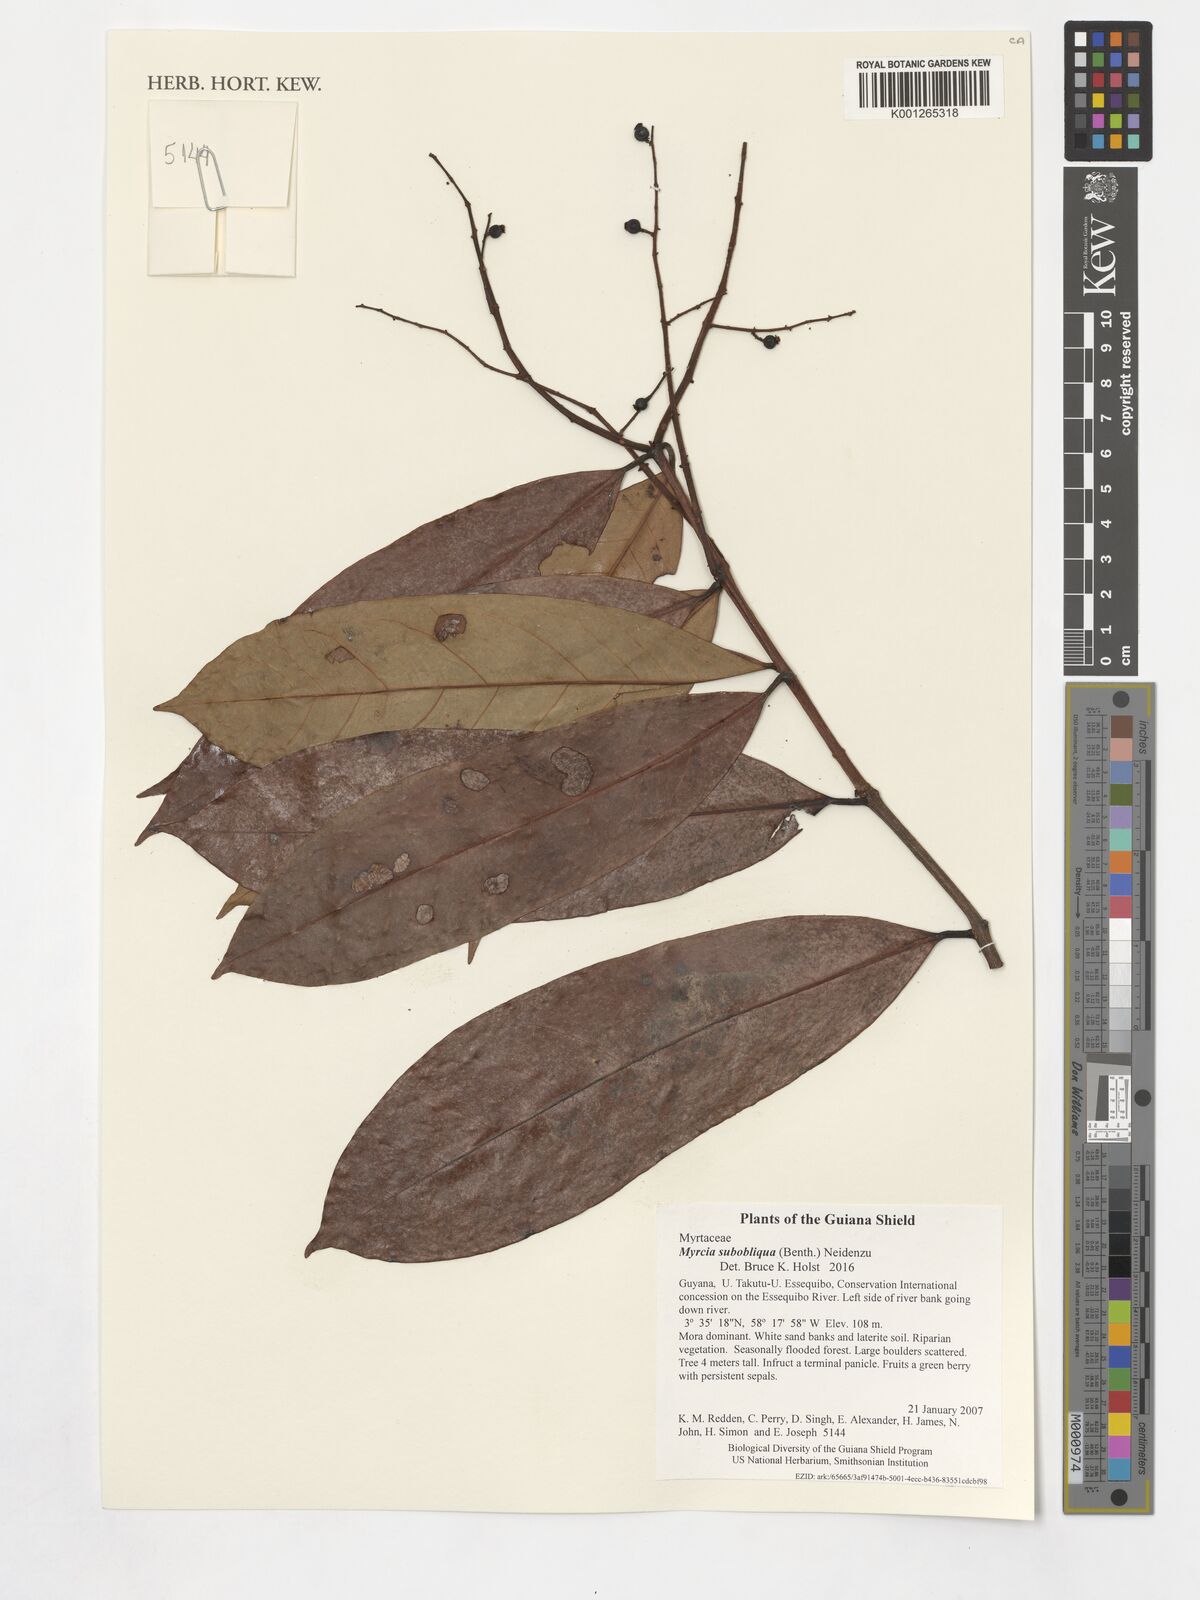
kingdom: Plantae
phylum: Tracheophyta
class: Magnoliopsida
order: Myrtales
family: Myrtaceae
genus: Myrcia
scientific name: Myrcia subobliqua
